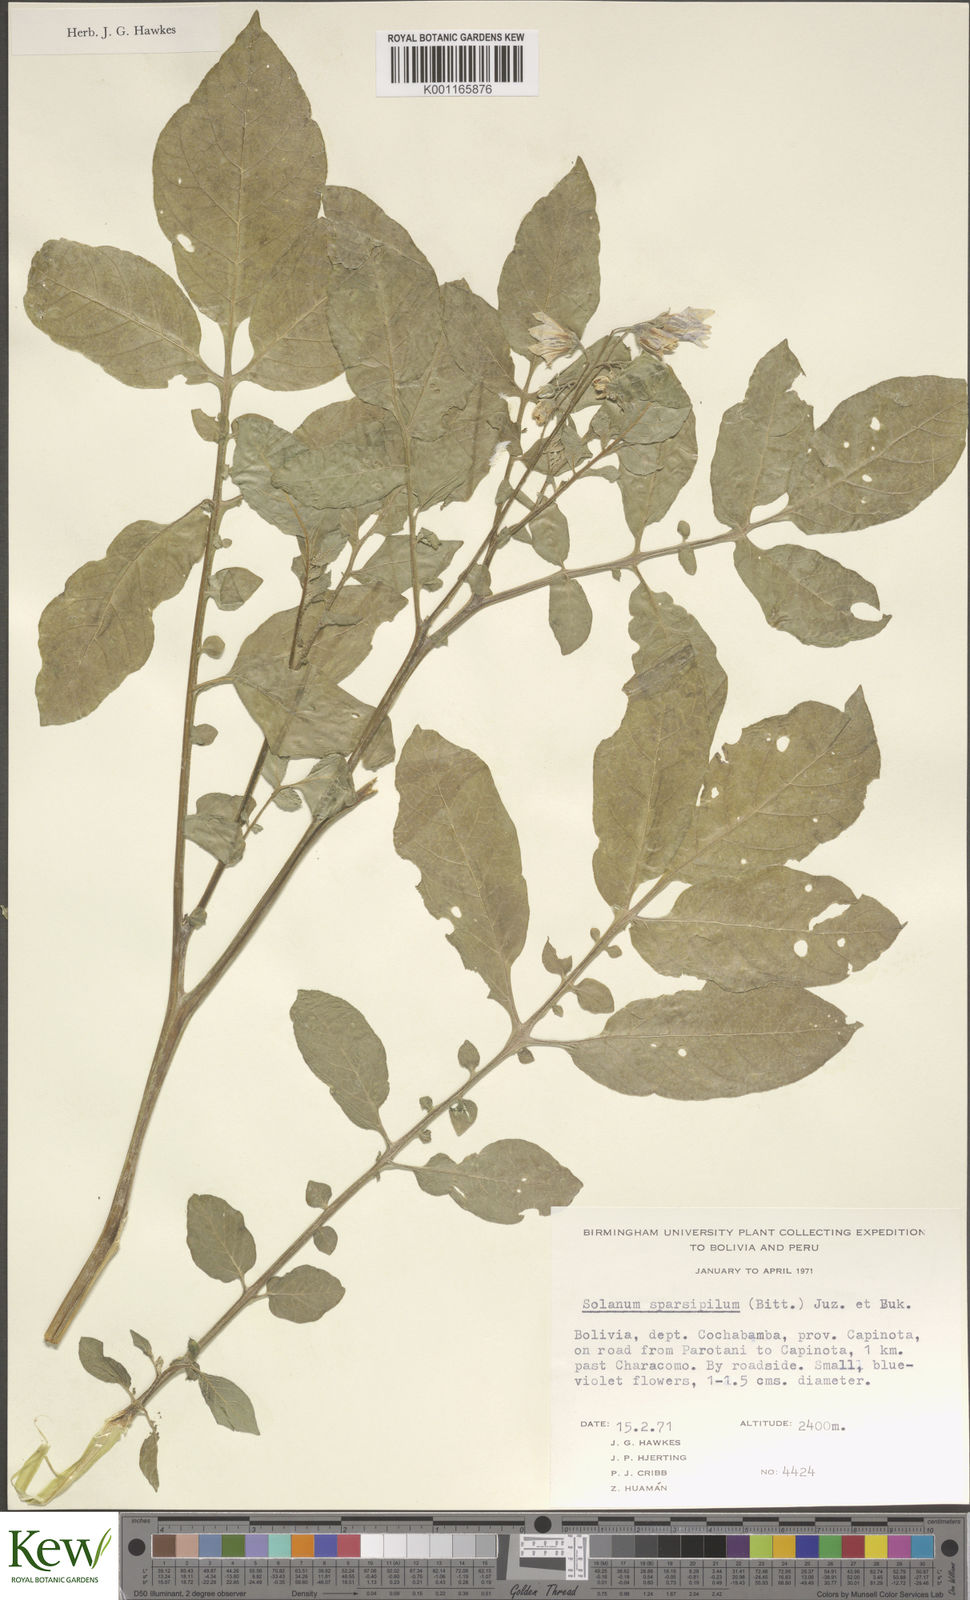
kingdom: Plantae
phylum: Tracheophyta
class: Magnoliopsida
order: Solanales
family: Solanaceae
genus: Solanum
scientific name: Solanum brevicaule
